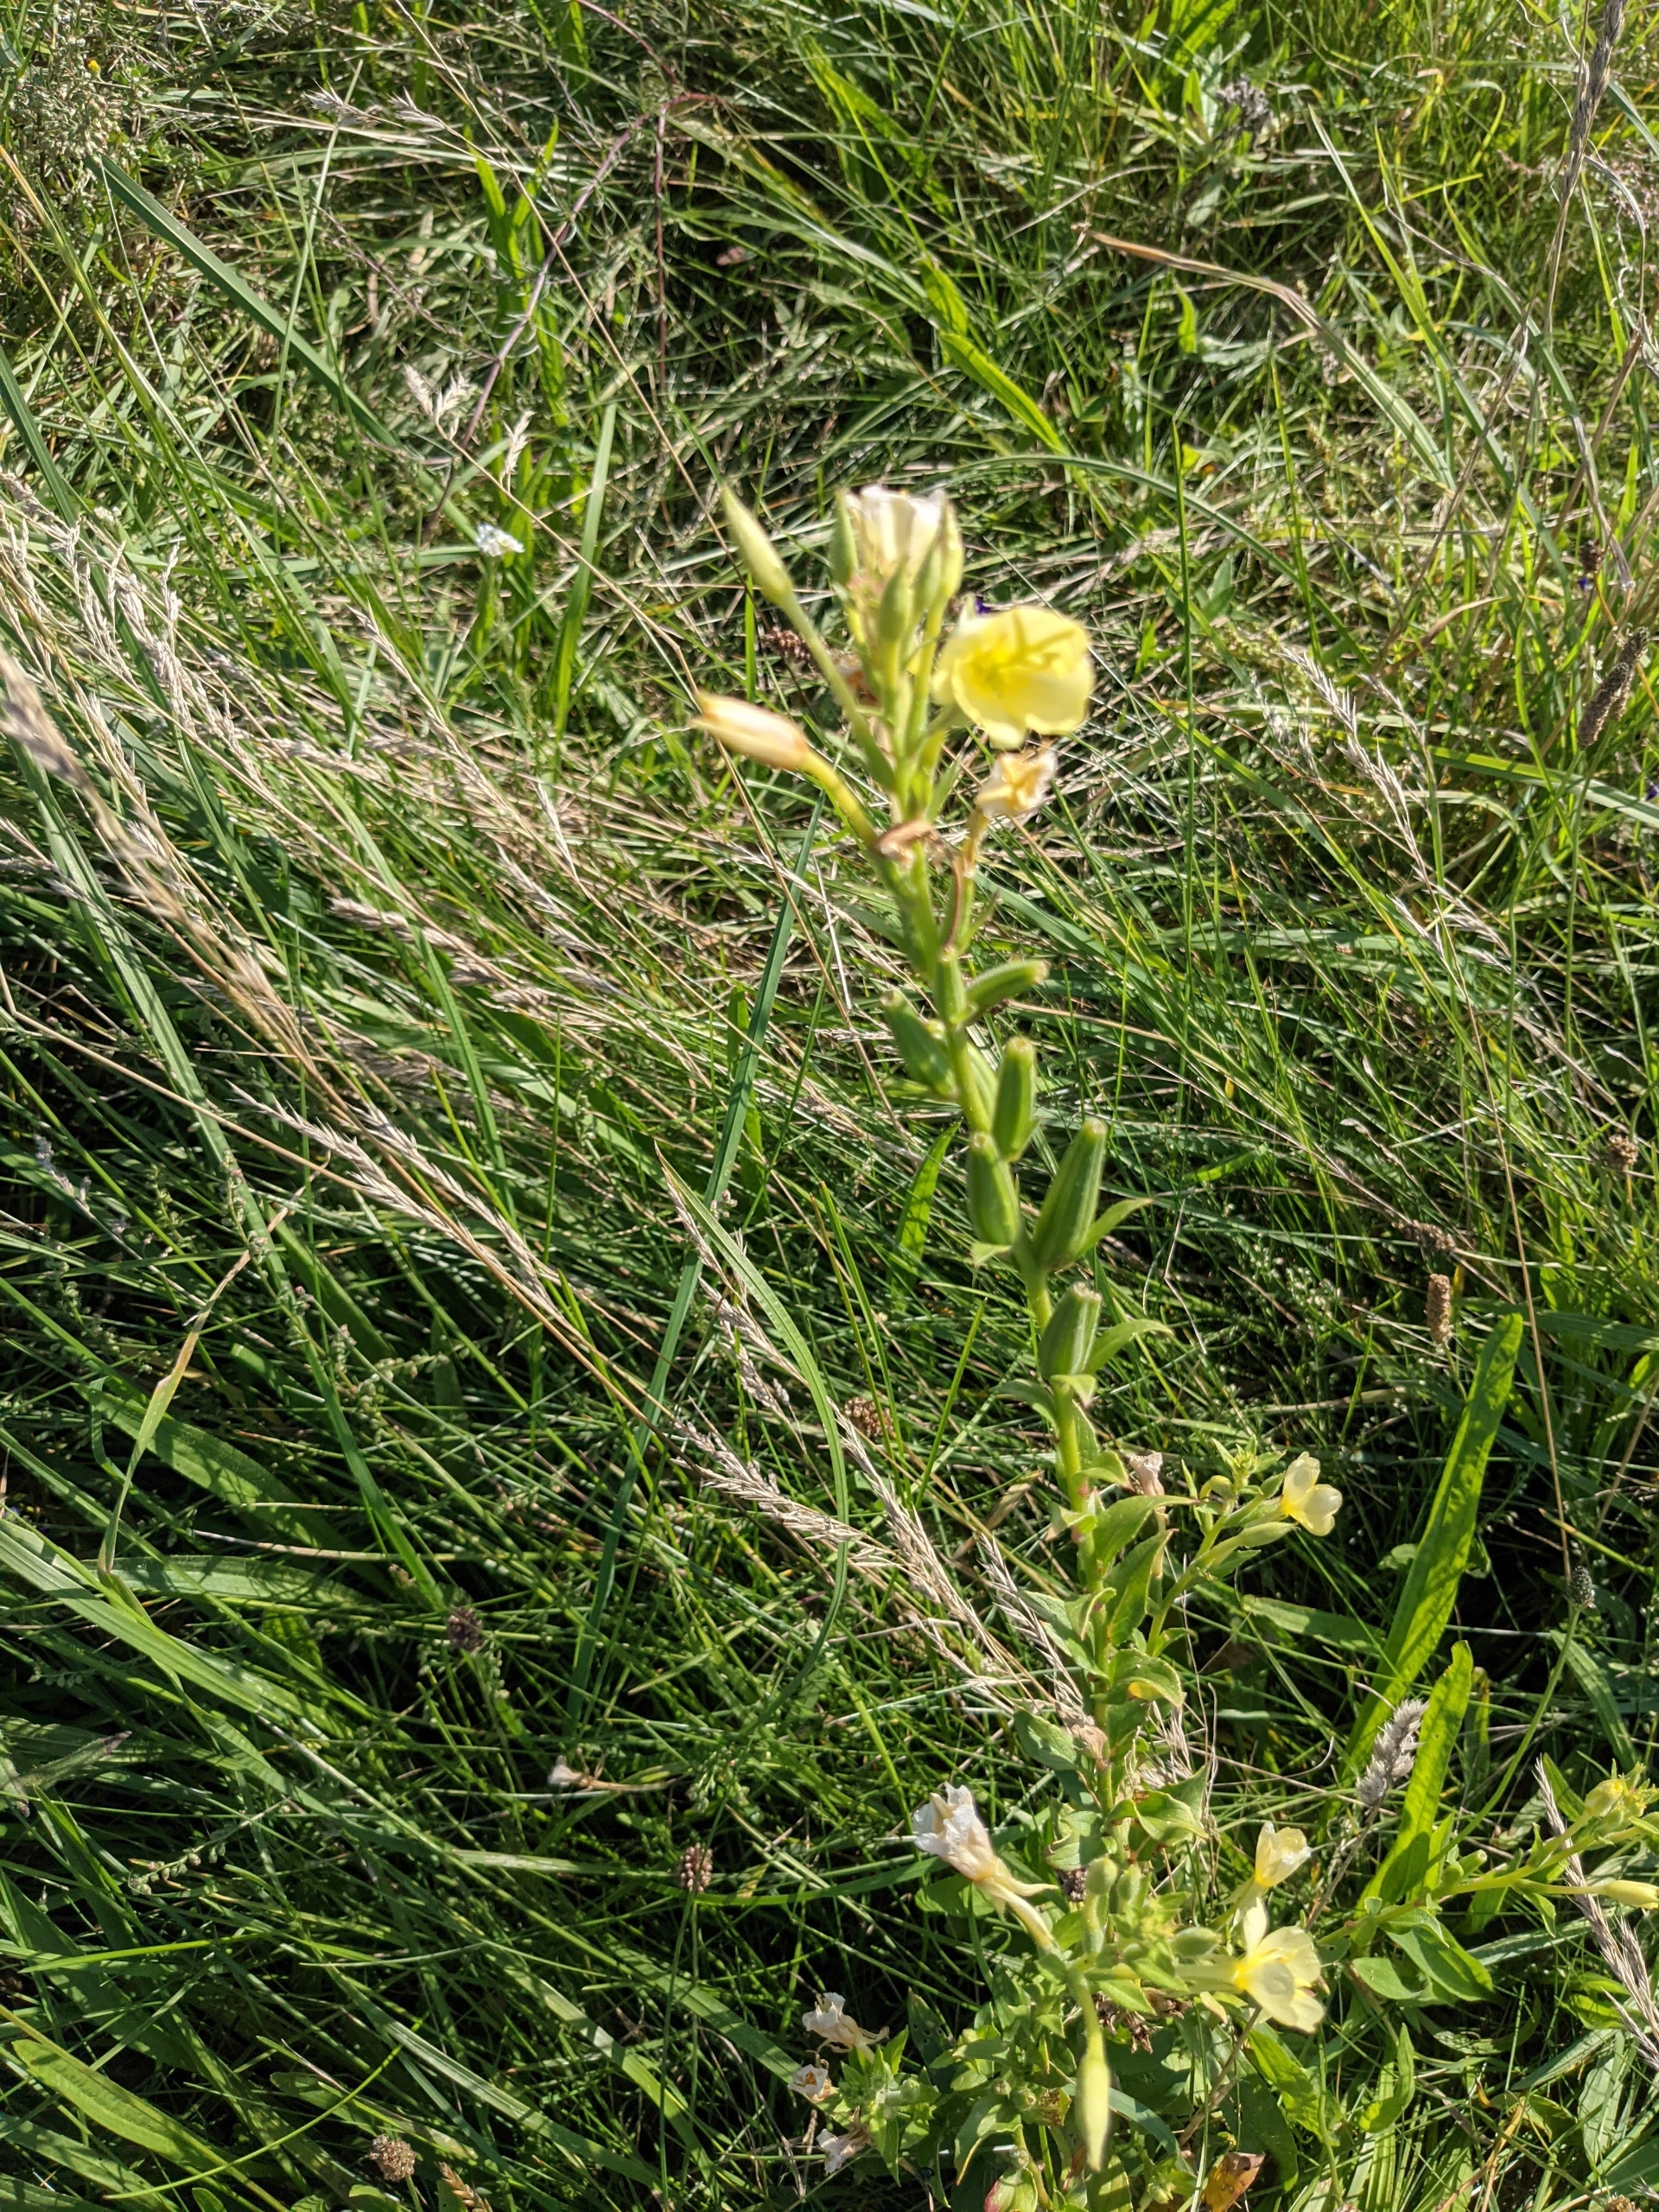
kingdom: Plantae
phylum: Tracheophyta
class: Magnoliopsida
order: Myrtales
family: Onagraceae
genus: Oenothera
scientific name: Oenothera biennis
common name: Toårig natlys
